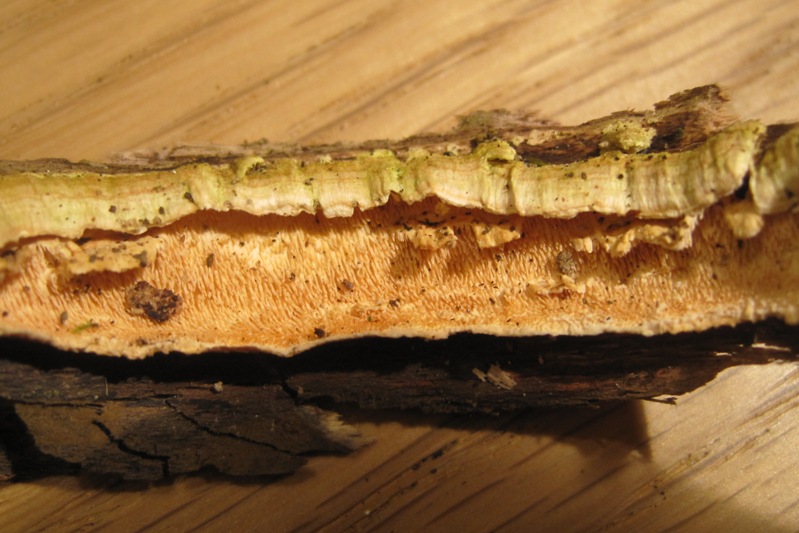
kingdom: Fungi
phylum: Basidiomycota
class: Agaricomycetes
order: Polyporales
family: Steccherinaceae
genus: Steccherinum
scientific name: Steccherinum ochraceum
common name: almindelig skønpig
